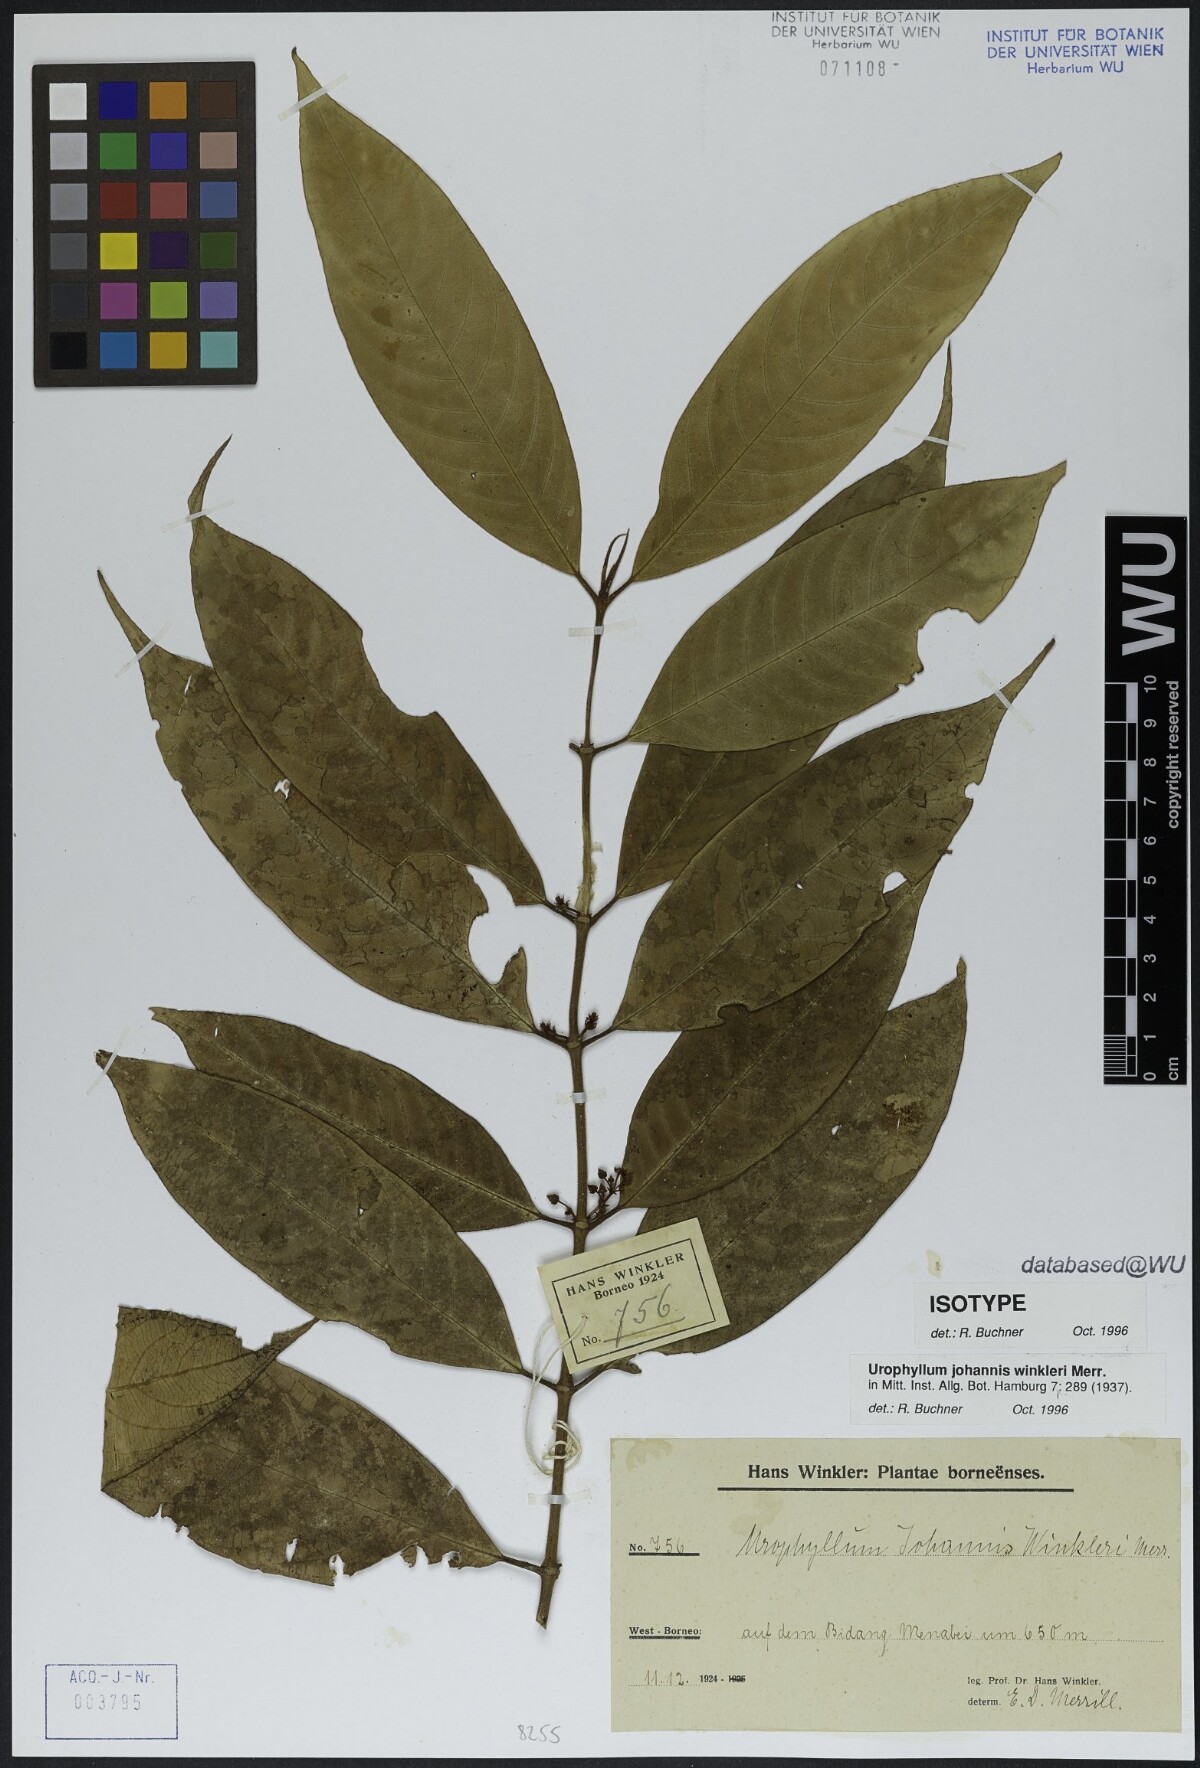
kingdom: Plantae
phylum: Tracheophyta
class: Magnoliopsida
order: Gentianales
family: Rubiaceae
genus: Urophyllum
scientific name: Urophyllum johannis-winkleri
